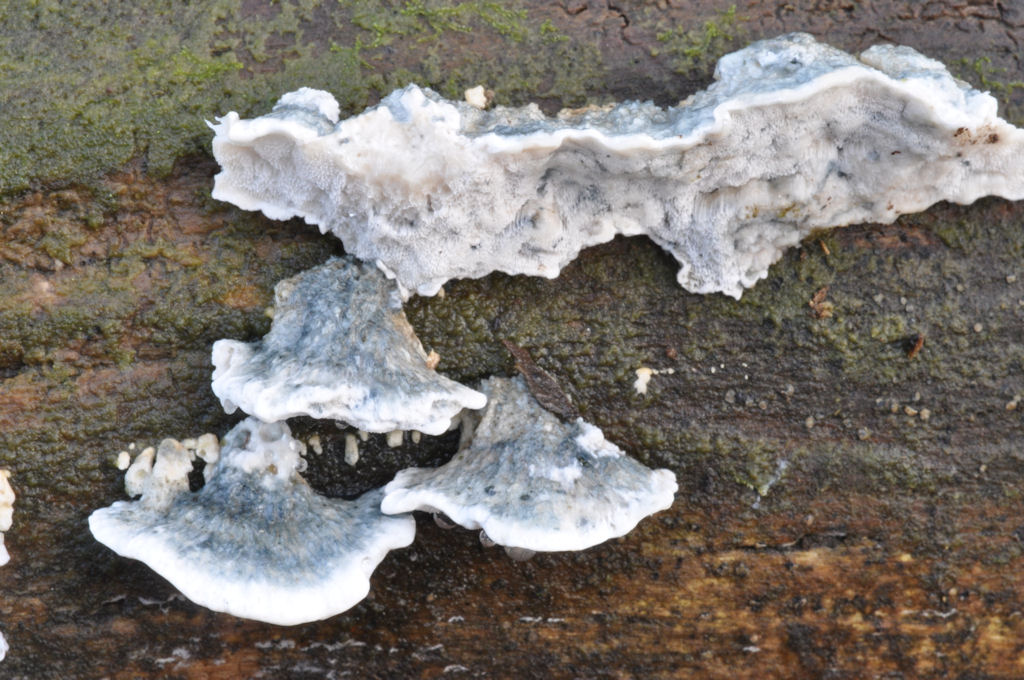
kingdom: Fungi
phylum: Basidiomycota
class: Agaricomycetes
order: Polyporales
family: Polyporaceae
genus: Cyanosporus
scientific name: Cyanosporus alni
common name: blegblå kødporesvamp
